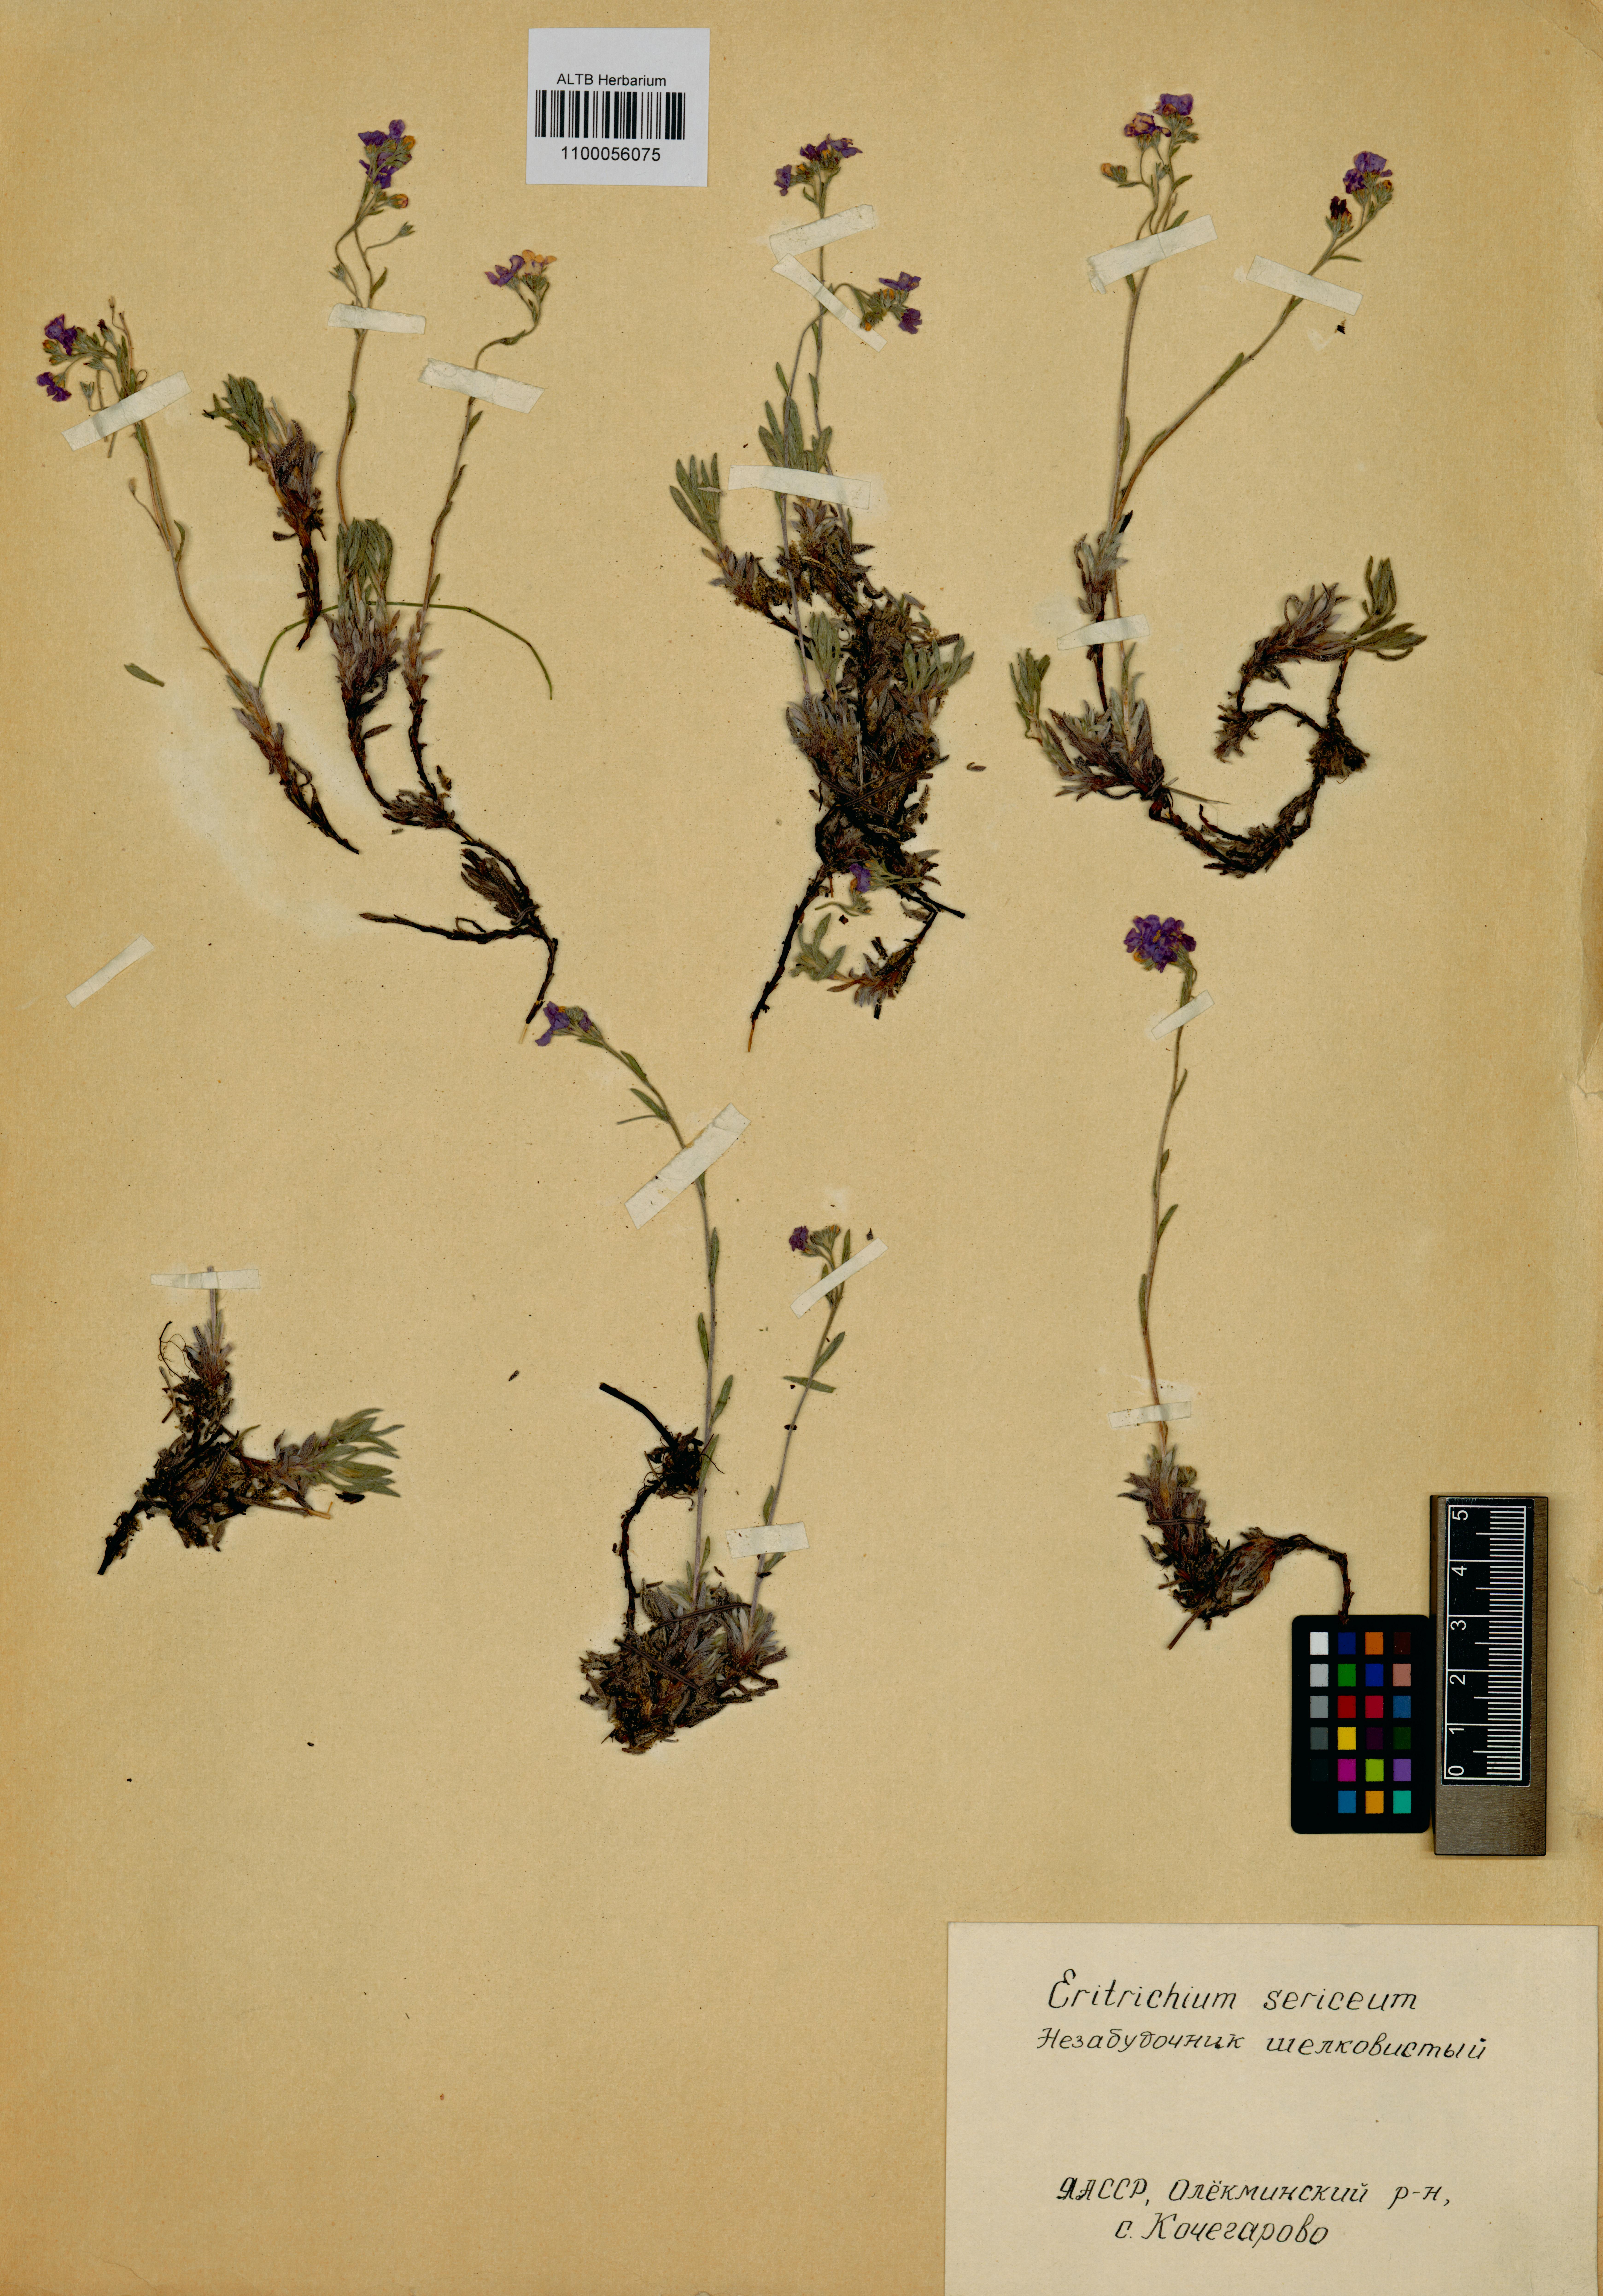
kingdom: Plantae
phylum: Tracheophyta
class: Magnoliopsida
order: Boraginales
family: Boraginaceae
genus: Eritrichium
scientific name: Eritrichium sericeum
